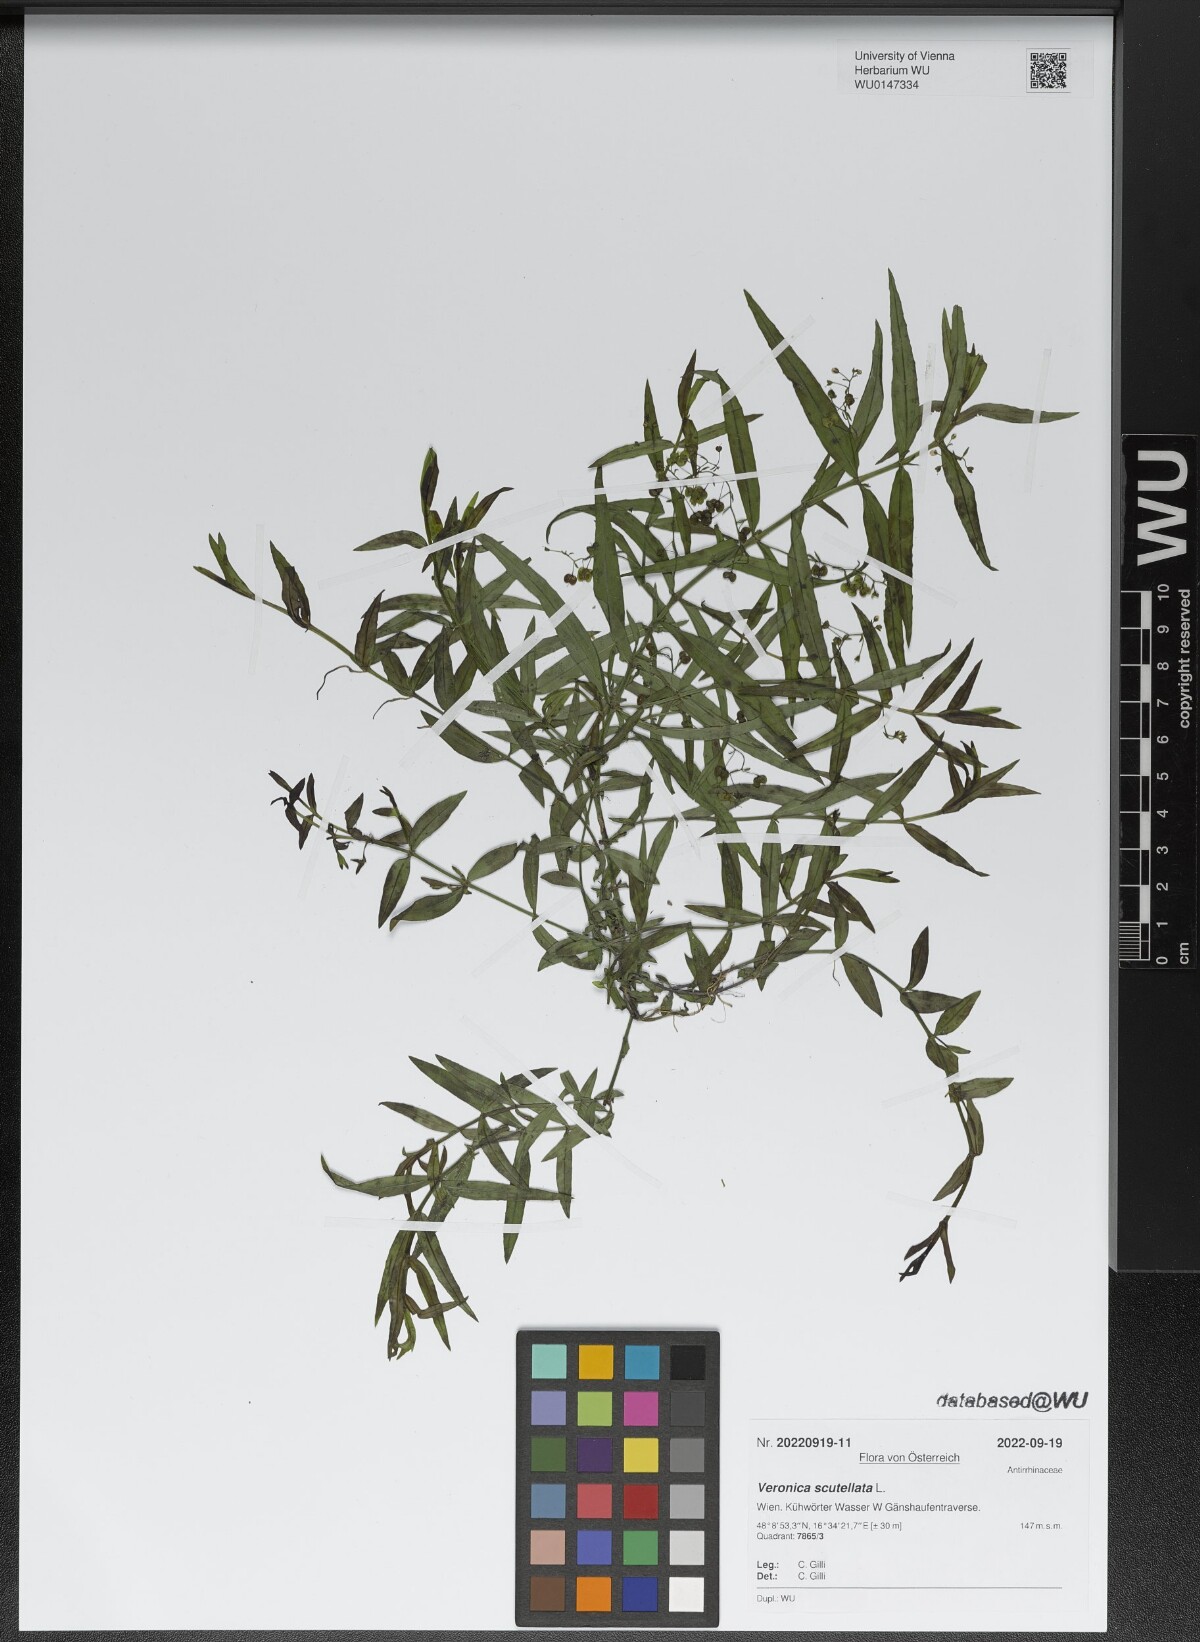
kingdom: Plantae
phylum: Tracheophyta
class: Magnoliopsida
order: Lamiales
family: Plantaginaceae
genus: Veronica
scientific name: Veronica scutellata
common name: Marsh speedwell
